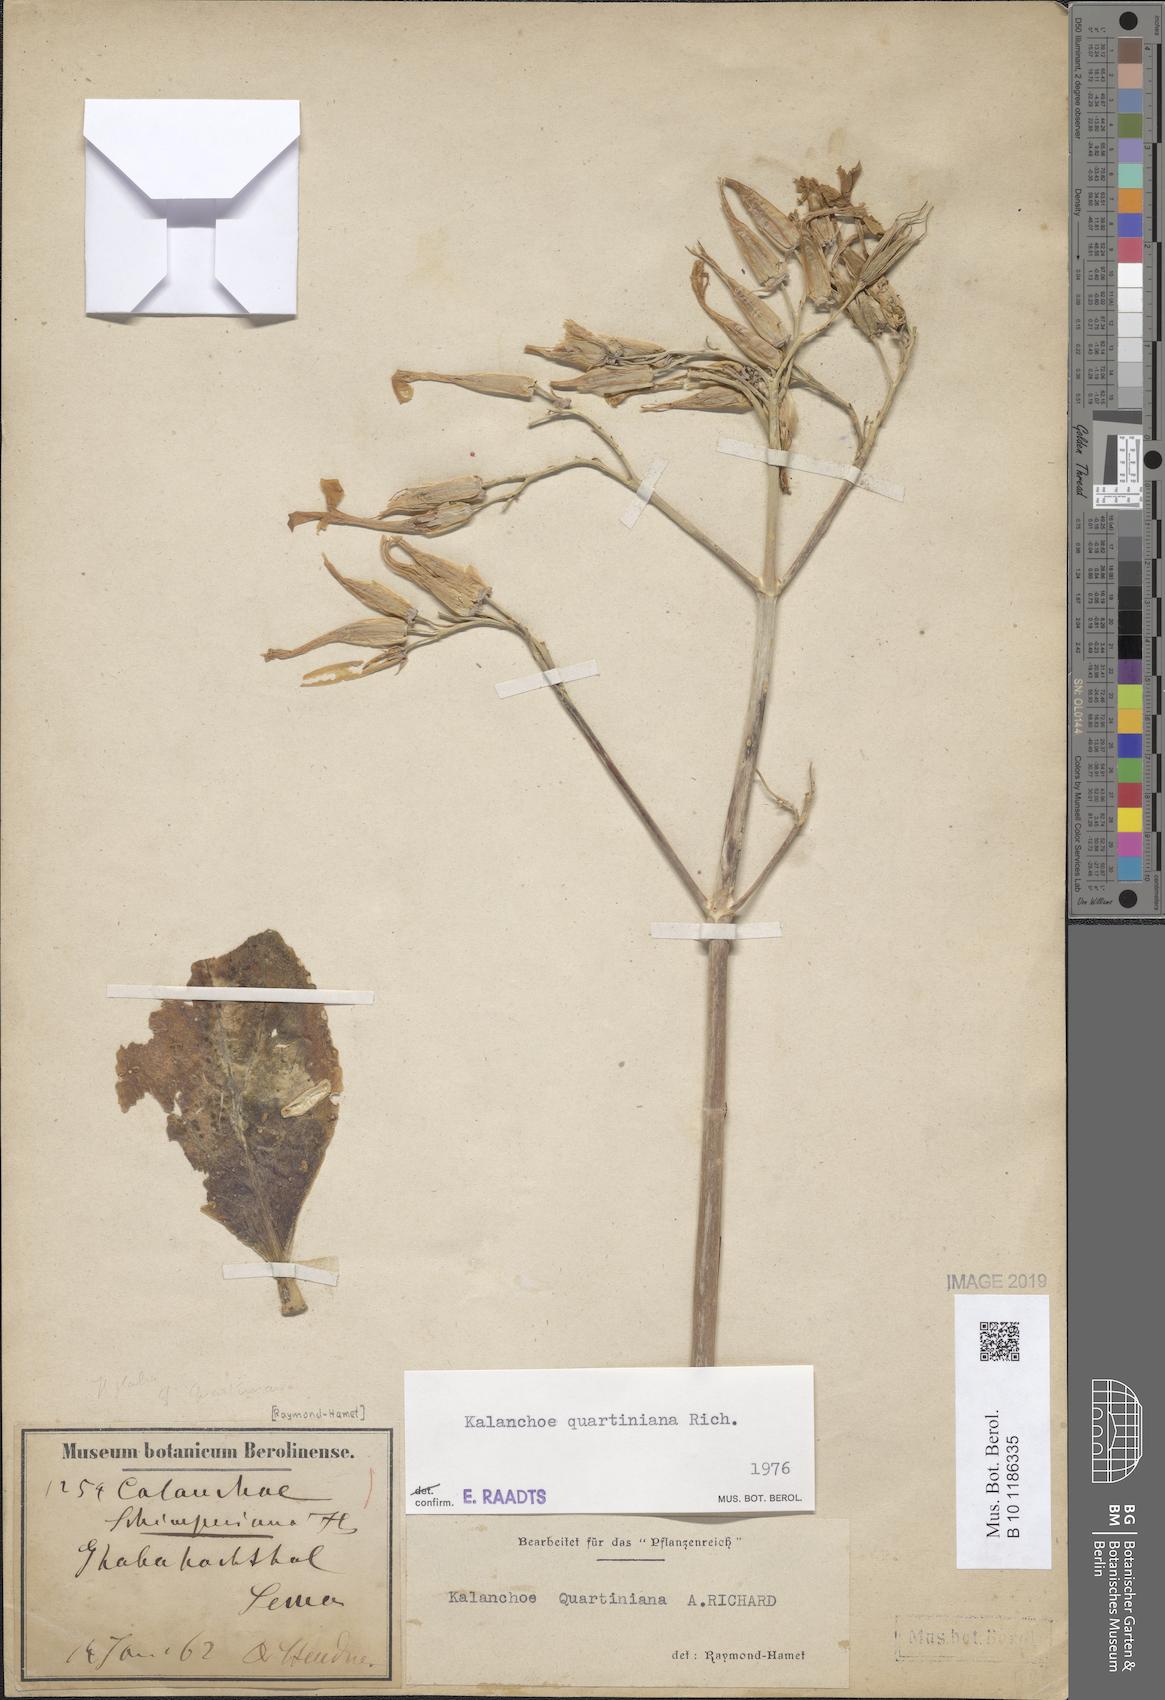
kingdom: Plantae
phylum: Tracheophyta
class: Magnoliopsida
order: Saxifragales
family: Crassulaceae
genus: Kalanchoe
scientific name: Kalanchoe quartiniana
